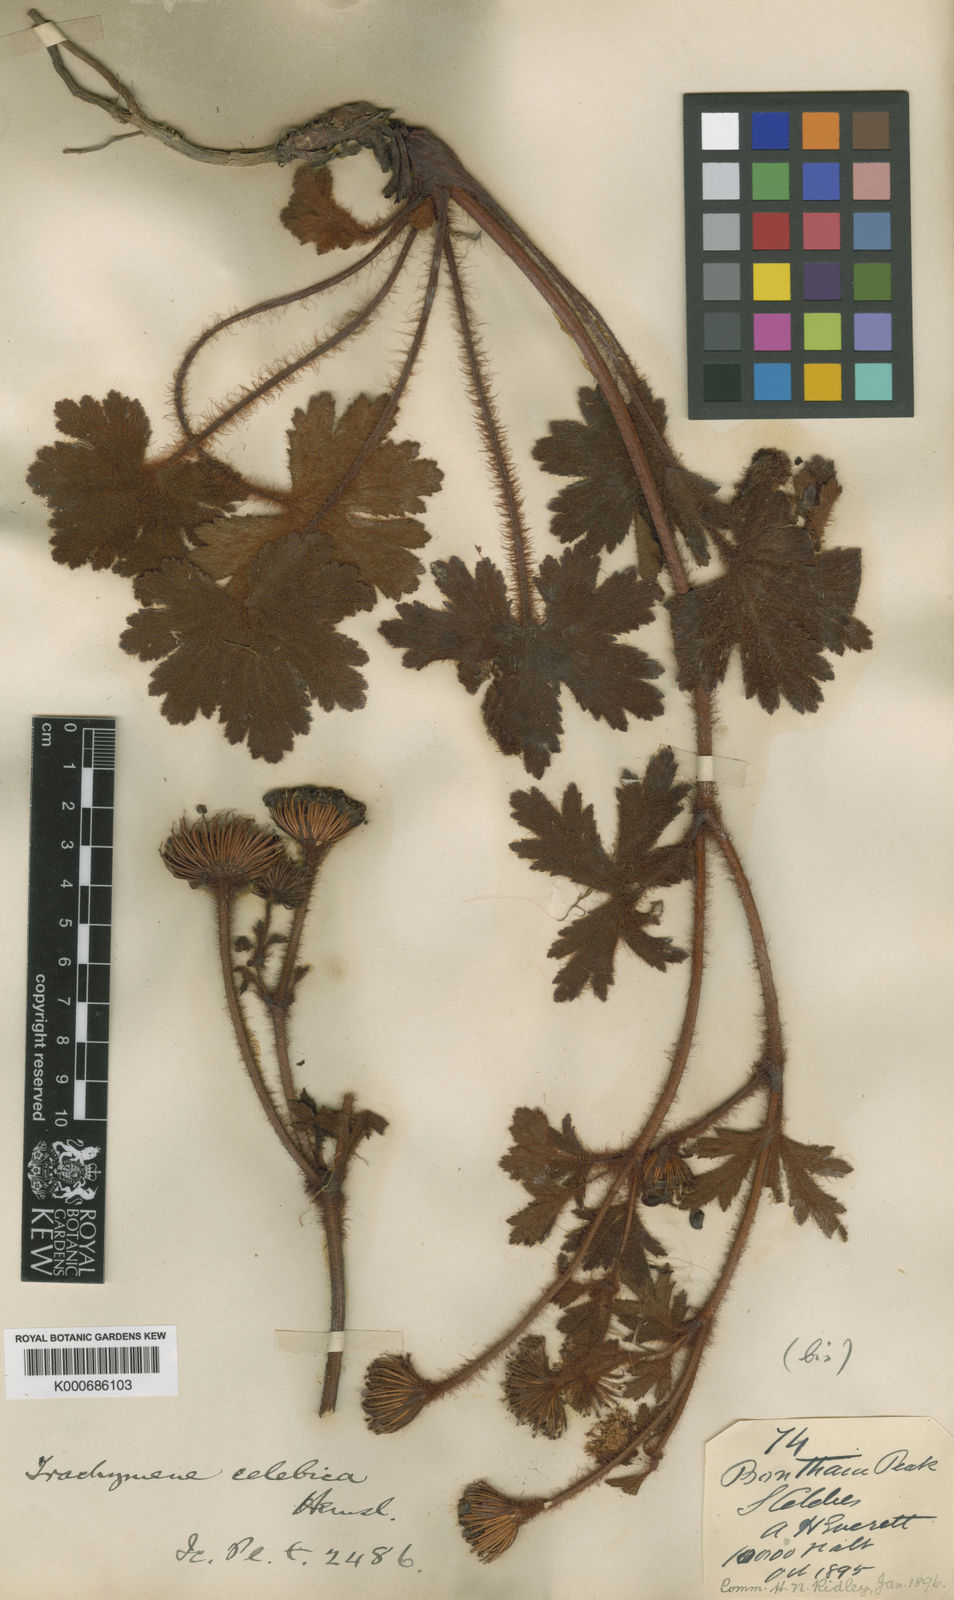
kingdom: Plantae
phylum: Tracheophyta
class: Magnoliopsida
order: Apiales
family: Araliaceae
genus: Trachymene
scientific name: Trachymene celebica
